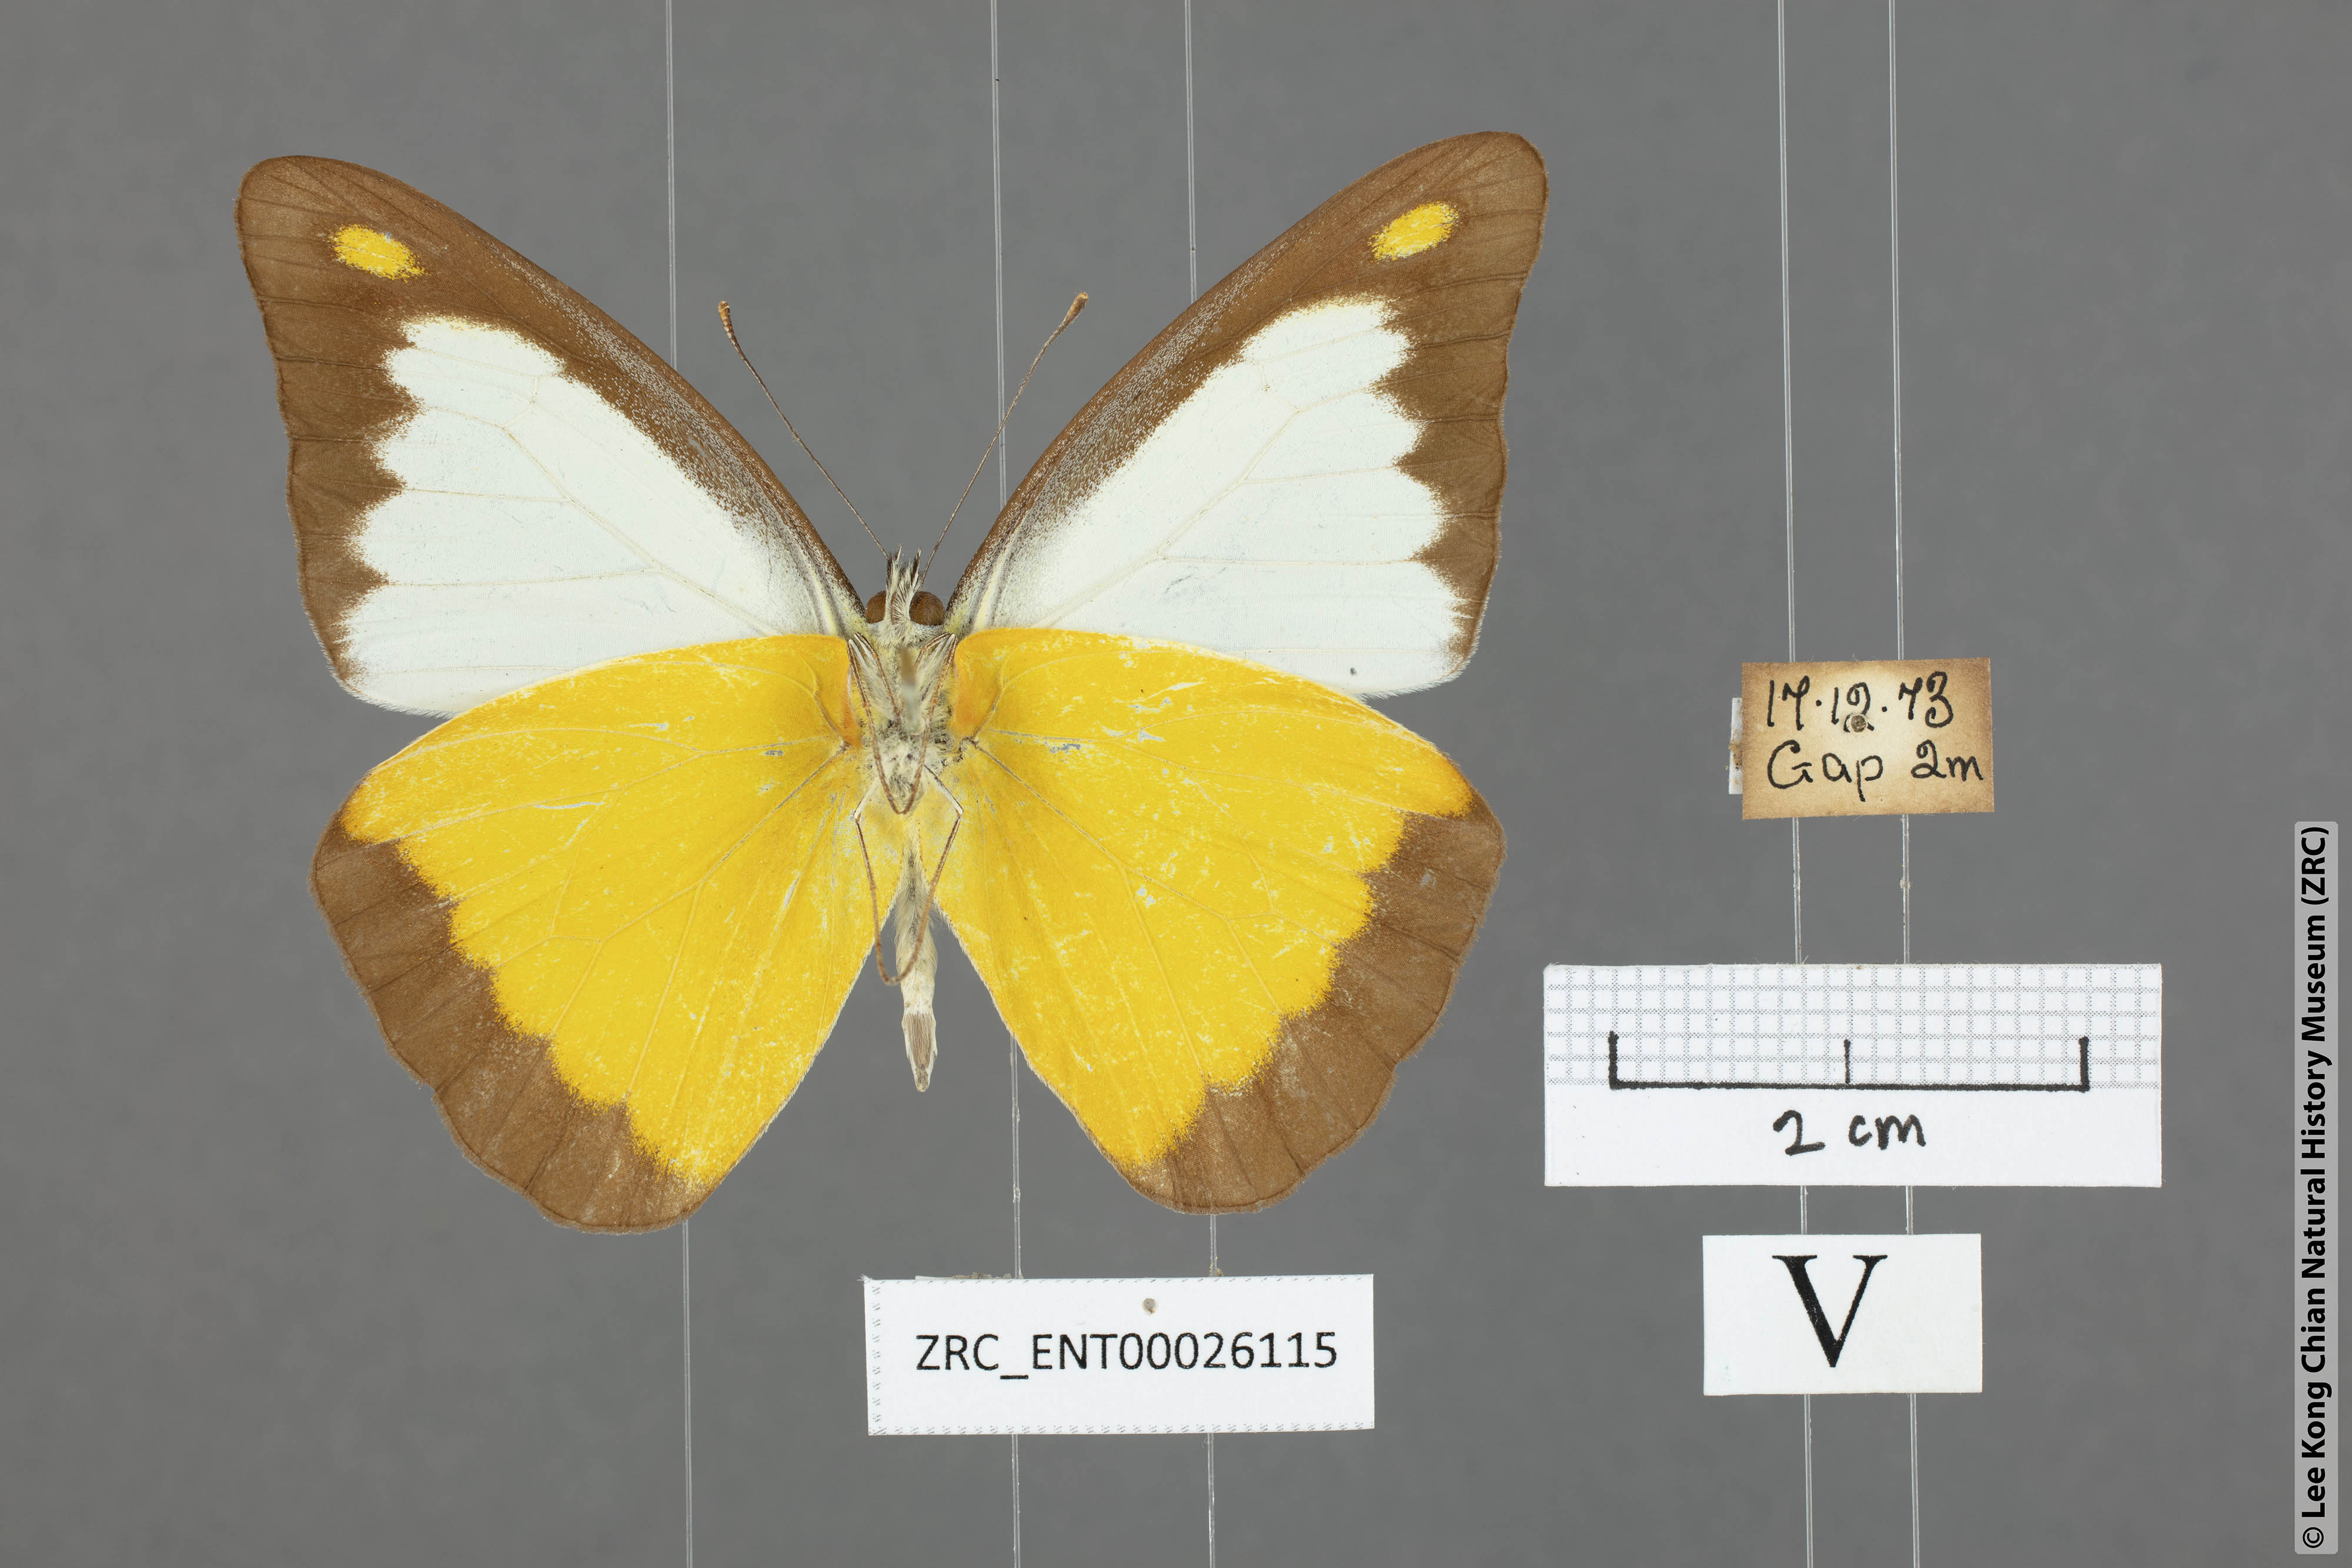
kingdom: Animalia
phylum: Arthropoda
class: Insecta
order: Lepidoptera
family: Pieridae
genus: Appias
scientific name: Appias lyncida
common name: Chocolate albatross
